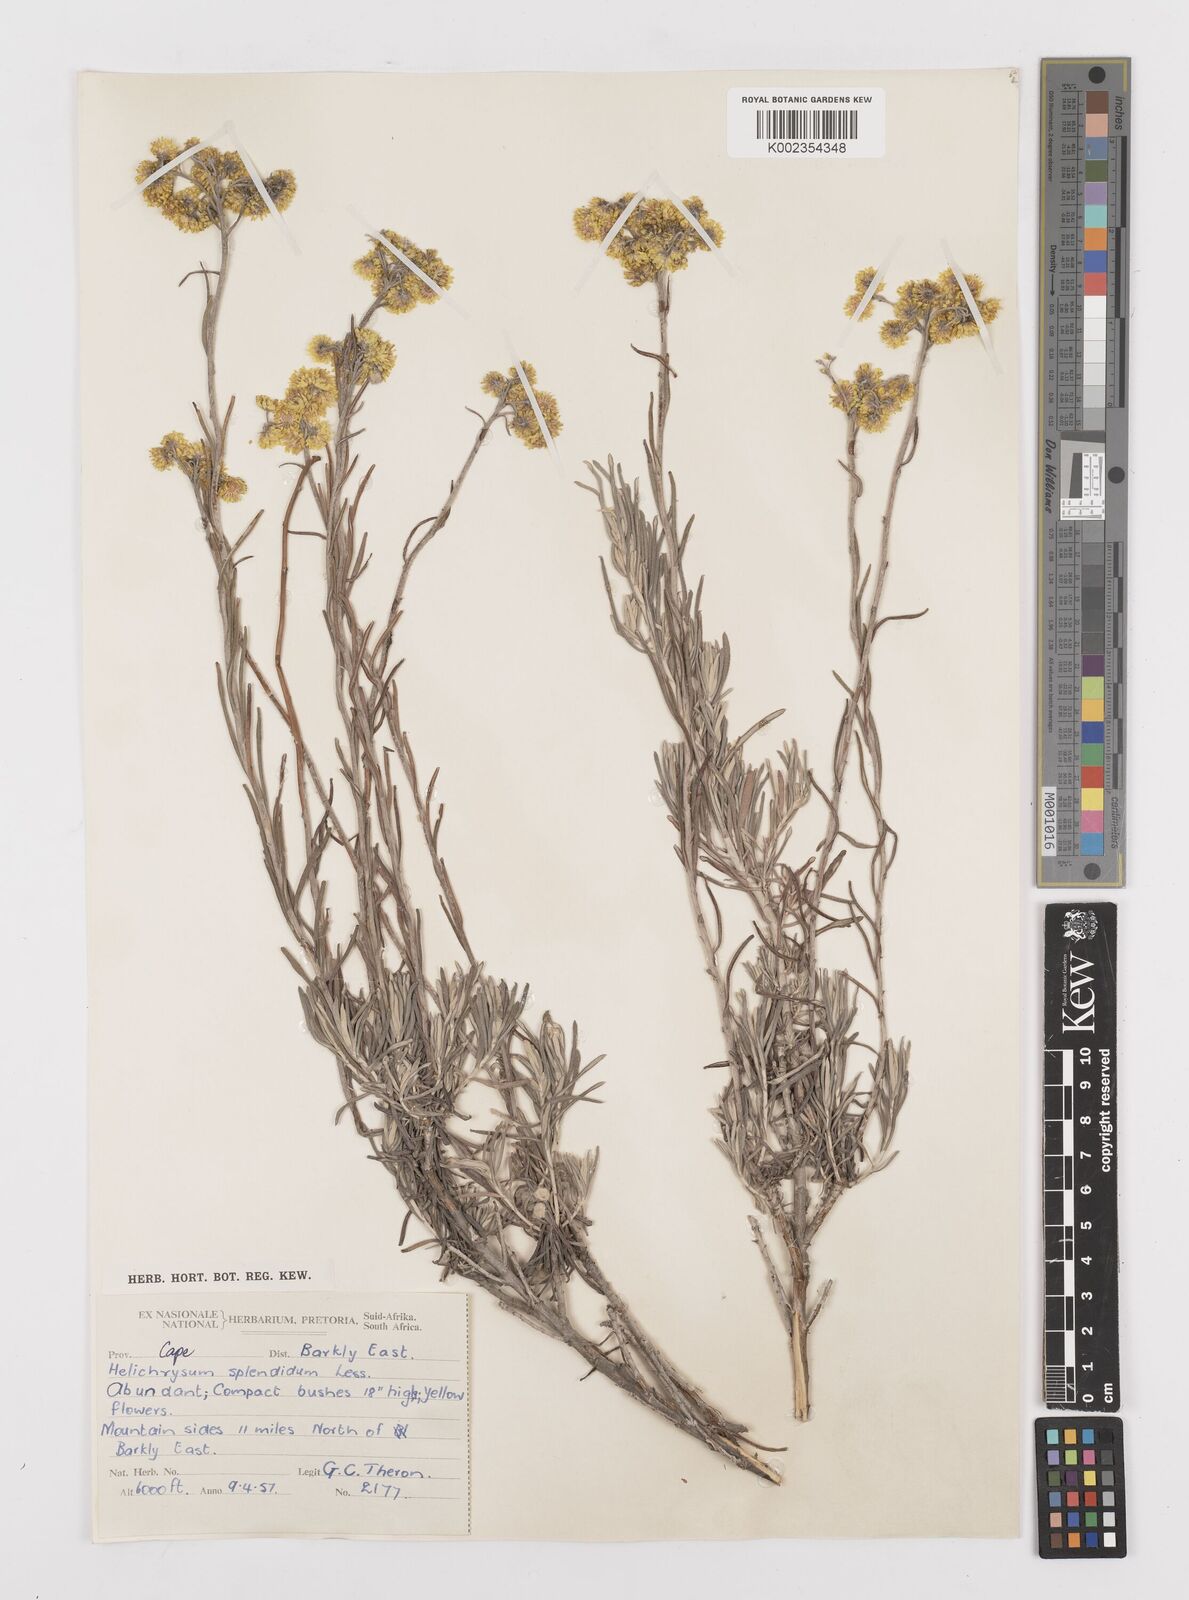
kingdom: Plantae
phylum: Tracheophyta
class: Magnoliopsida
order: Asterales
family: Asteraceae
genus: Helichrysum
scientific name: Helichrysum splendidum
